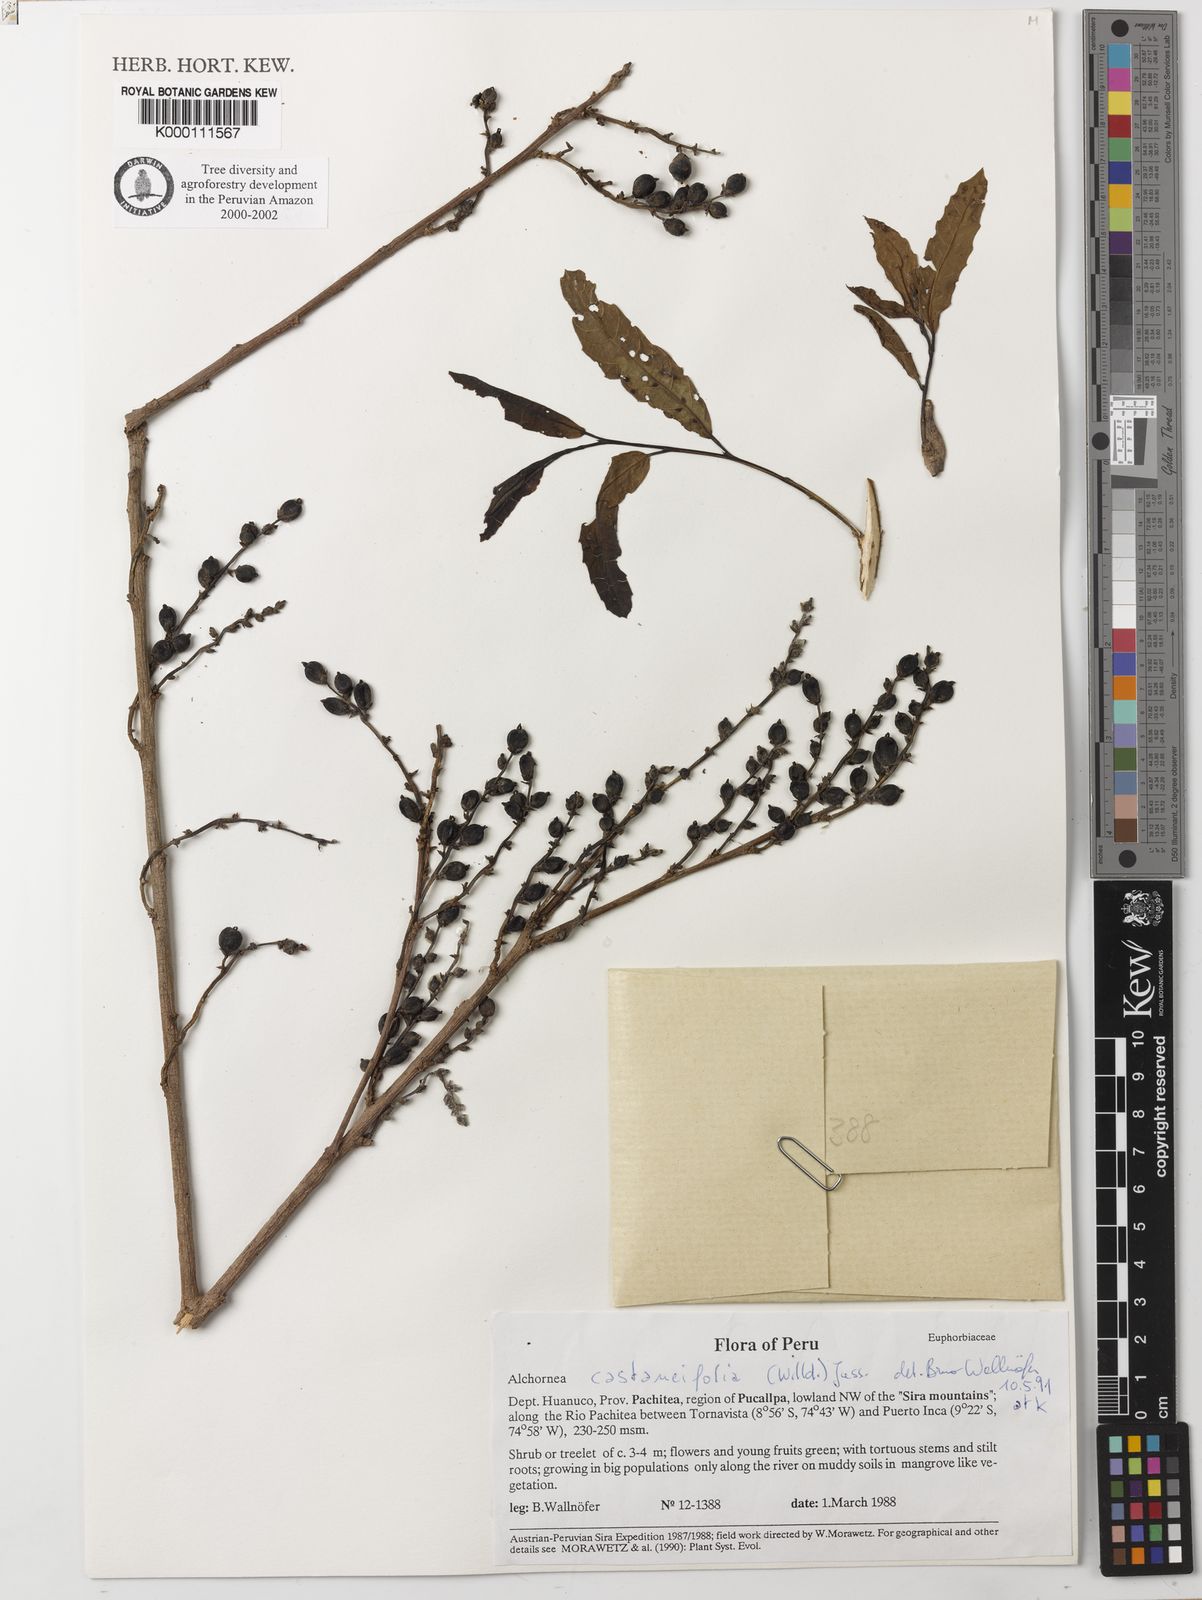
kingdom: Plantae
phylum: Tracheophyta
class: Magnoliopsida
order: Malpighiales
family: Euphorbiaceae
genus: Alchornea
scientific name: Alchornea castaneifolia
